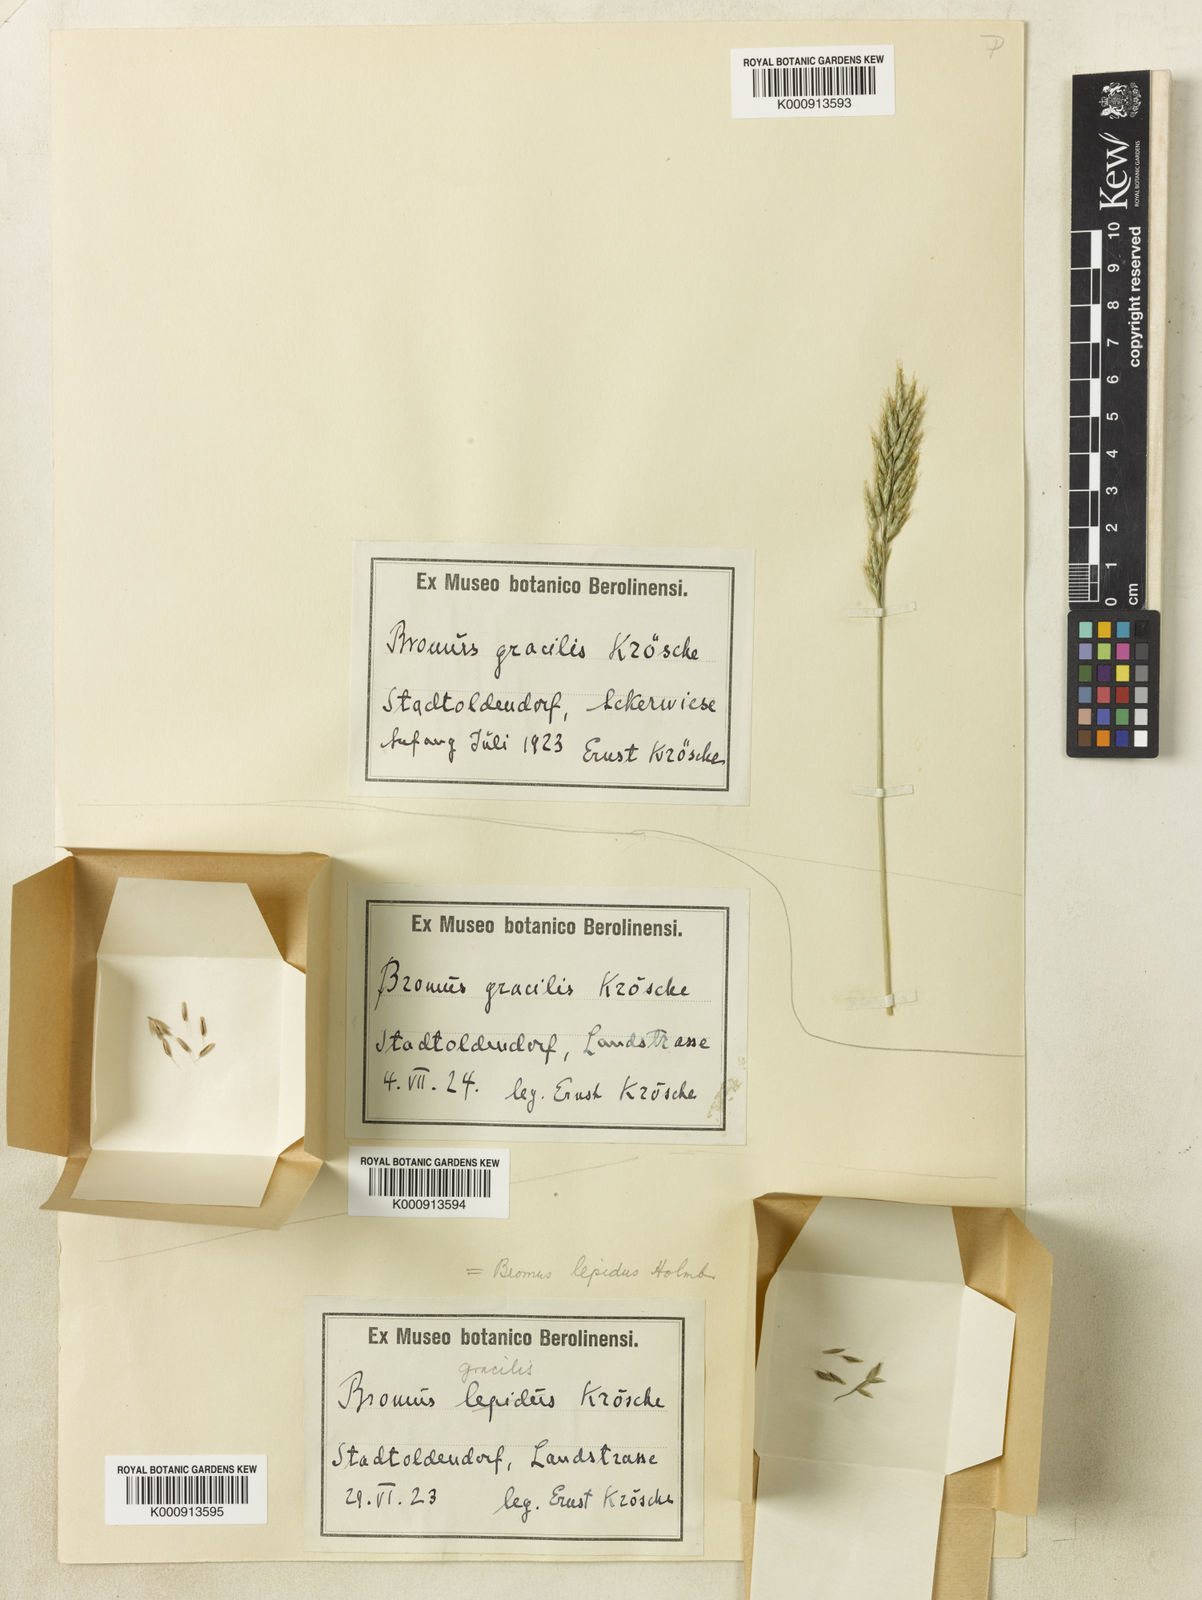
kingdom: Plantae
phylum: Tracheophyta
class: Liliopsida
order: Poales
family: Poaceae
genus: Bromus
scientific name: Bromus lepidus
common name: Slender soft-brome
